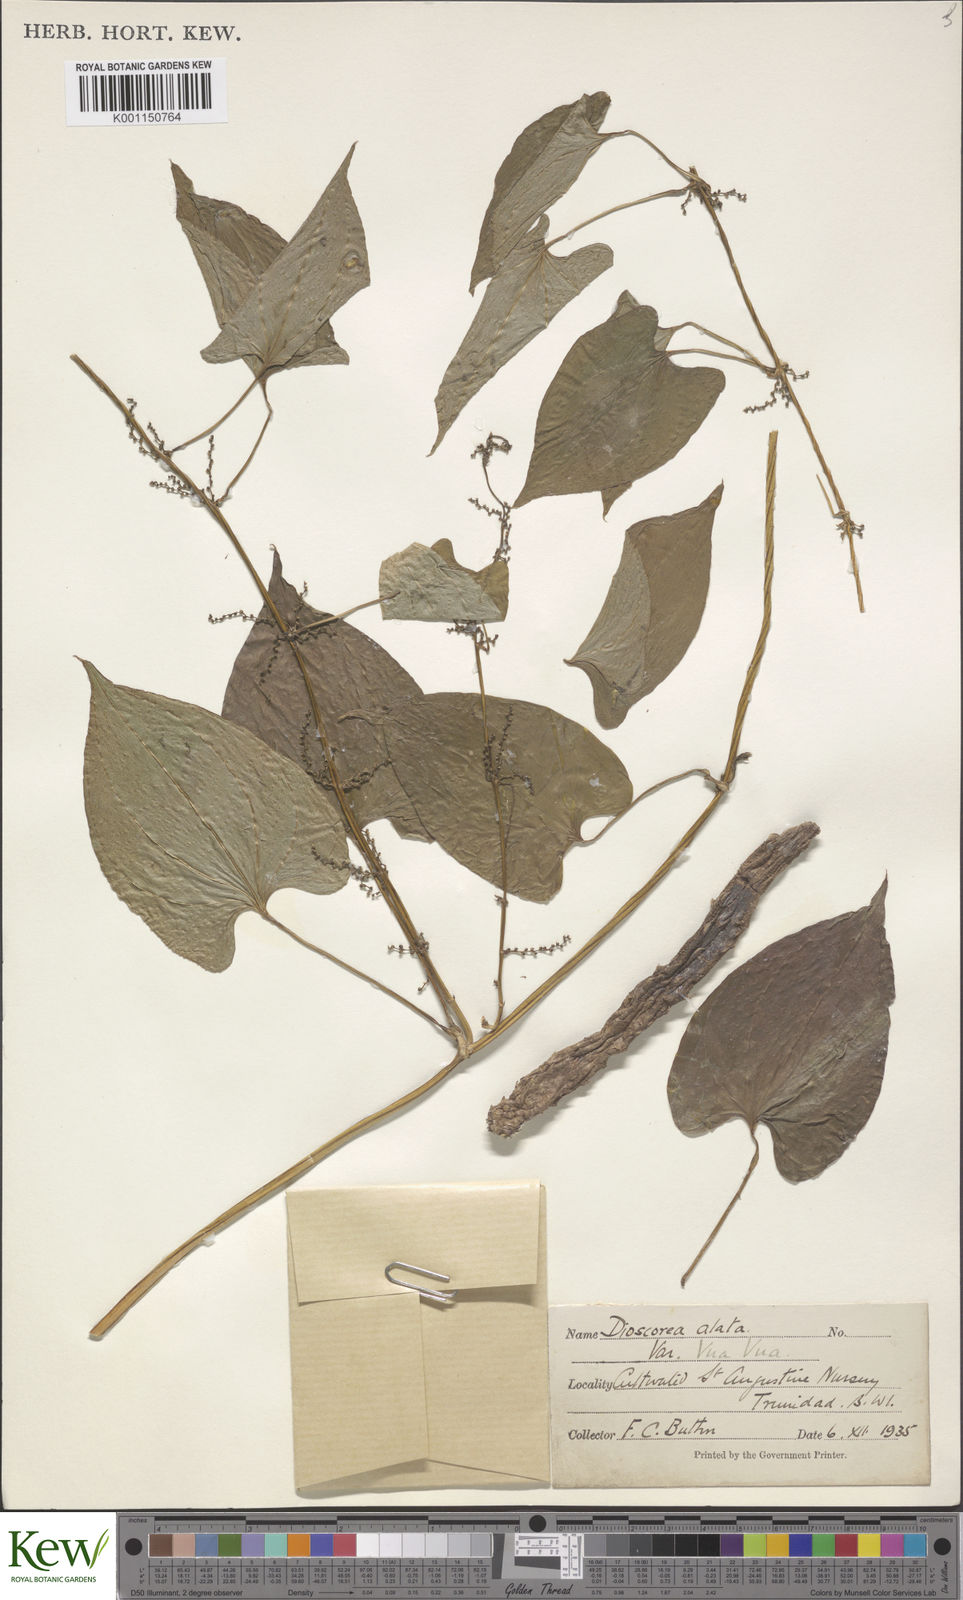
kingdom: Plantae
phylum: Tracheophyta
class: Liliopsida
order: Dioscoreales
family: Dioscoreaceae
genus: Dioscorea
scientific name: Dioscorea alata
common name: Water yam
